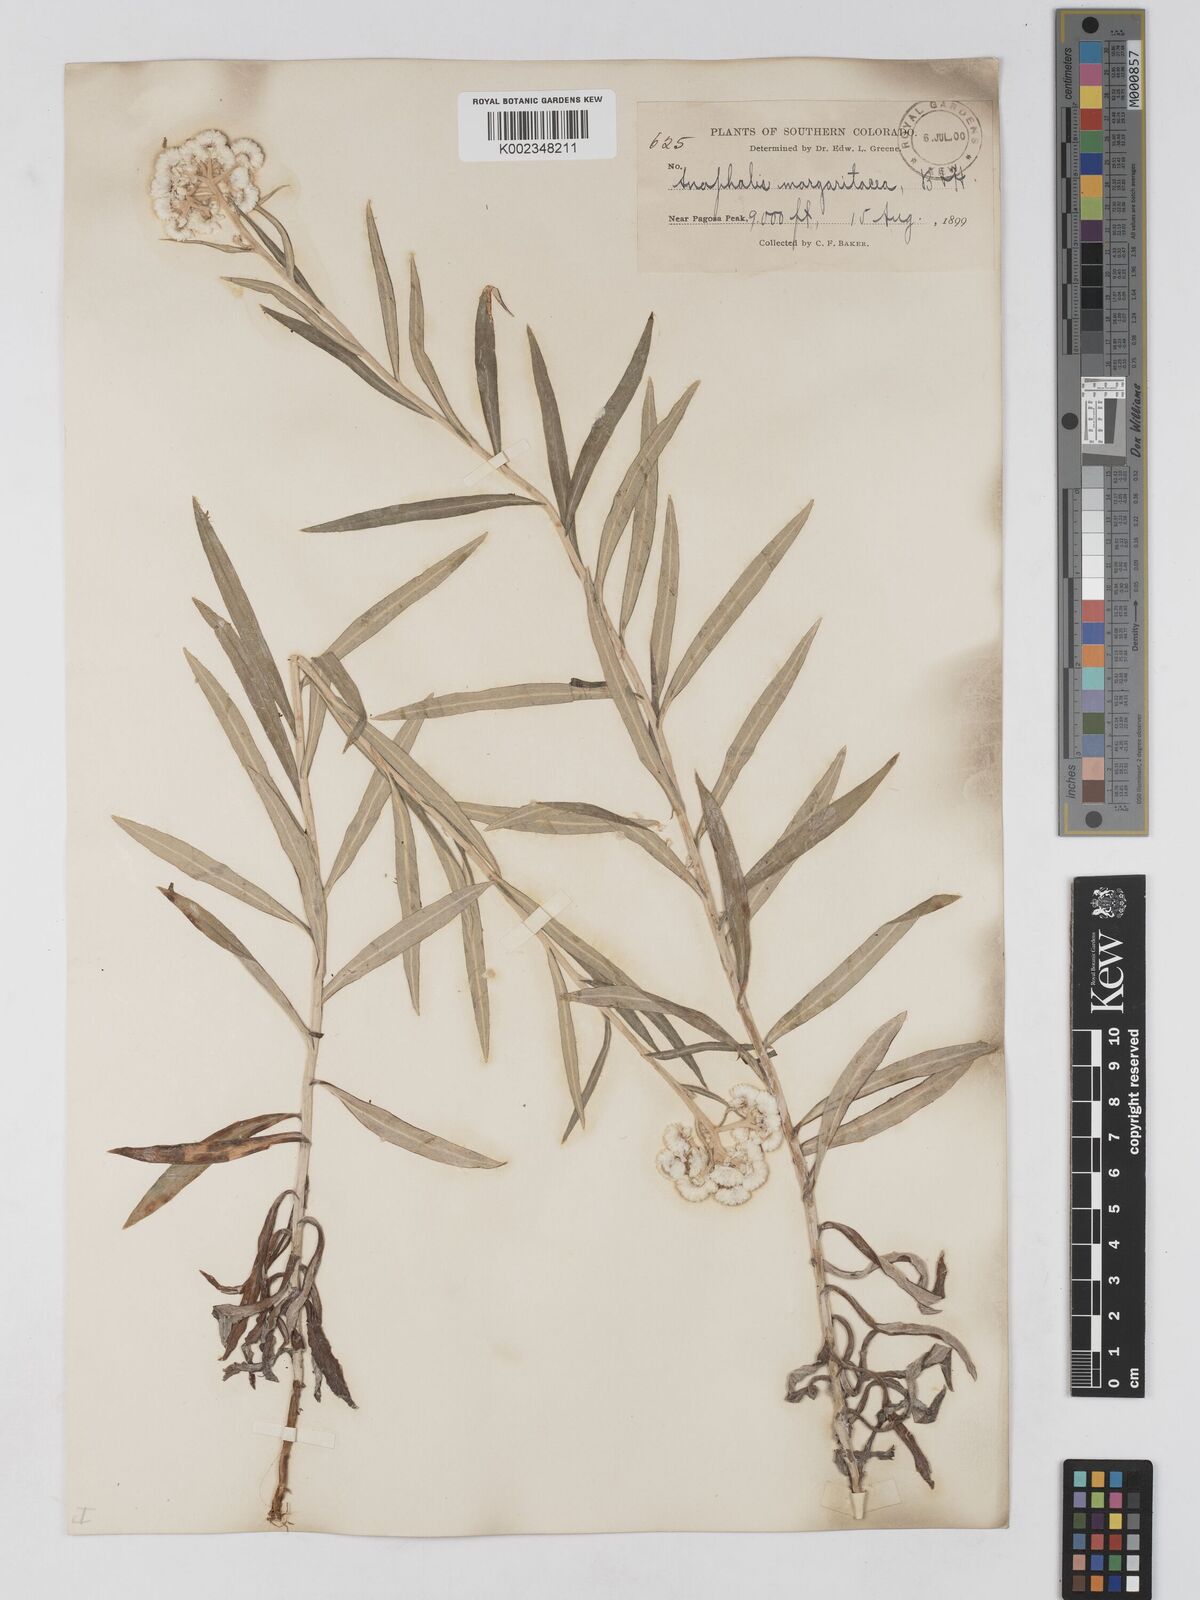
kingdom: Plantae
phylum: Tracheophyta
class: Magnoliopsida
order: Asterales
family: Asteraceae
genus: Anaphalis
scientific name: Anaphalis margaritacea
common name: Pearly everlasting
